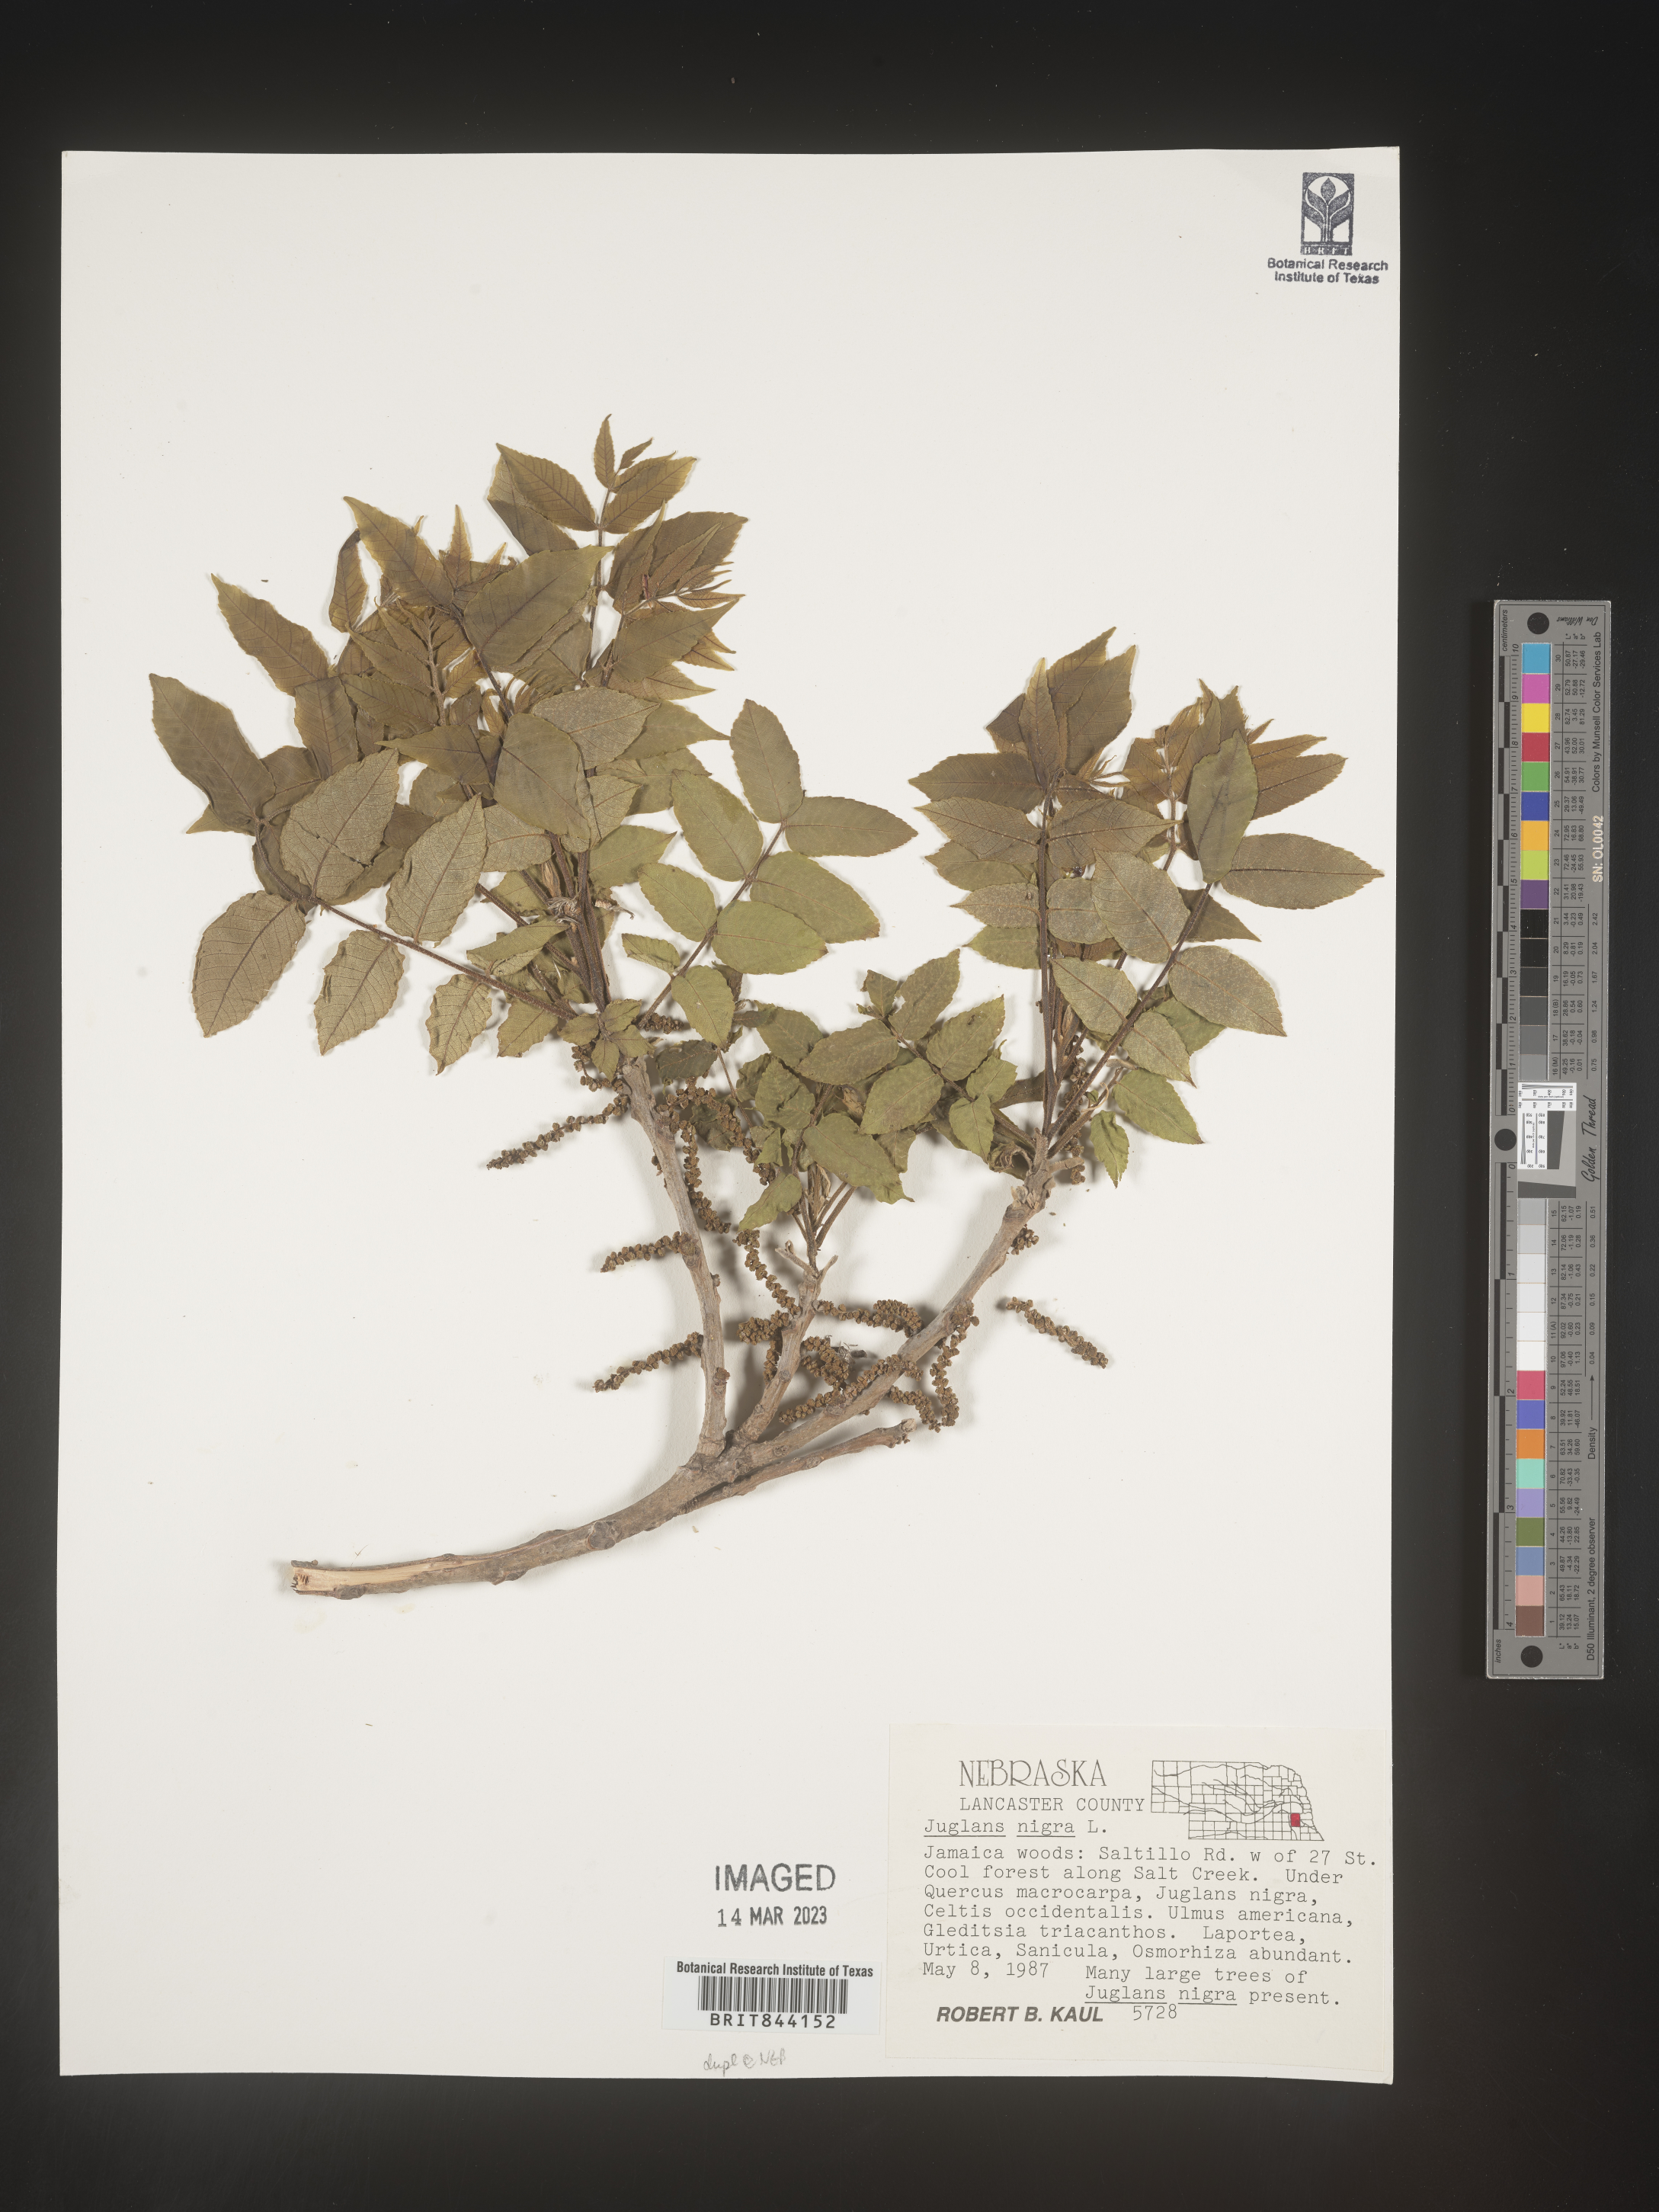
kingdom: Plantae
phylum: Tracheophyta
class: Magnoliopsida
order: Fagales
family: Juglandaceae
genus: Juglans
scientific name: Juglans nigra
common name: Black walnut
